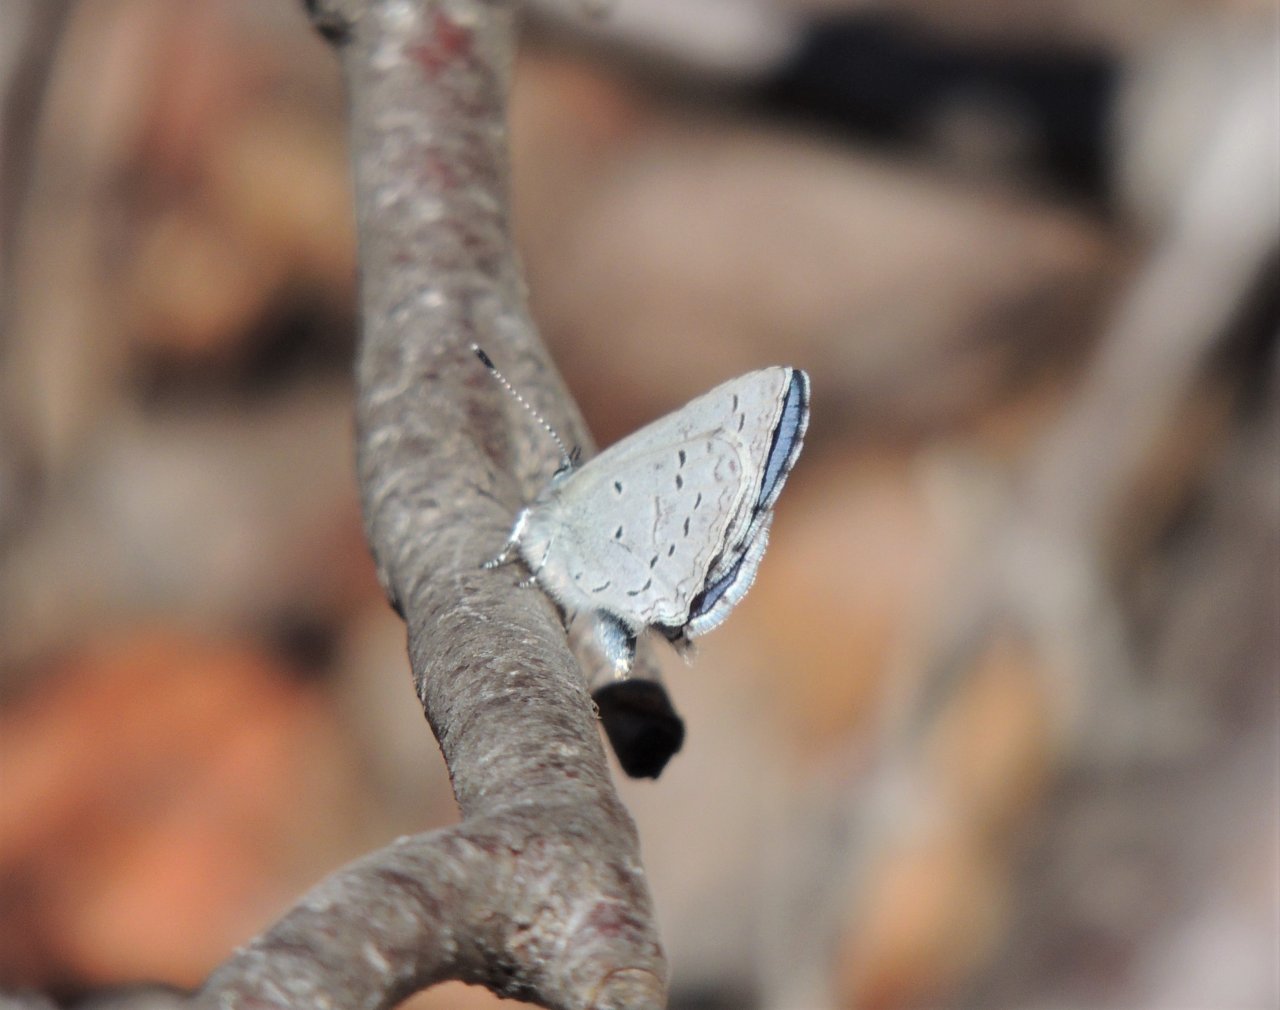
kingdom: Animalia
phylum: Arthropoda
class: Insecta
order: Lepidoptera
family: Lycaenidae
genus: Celastrina
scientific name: Celastrina ladon
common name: Echo Azure
